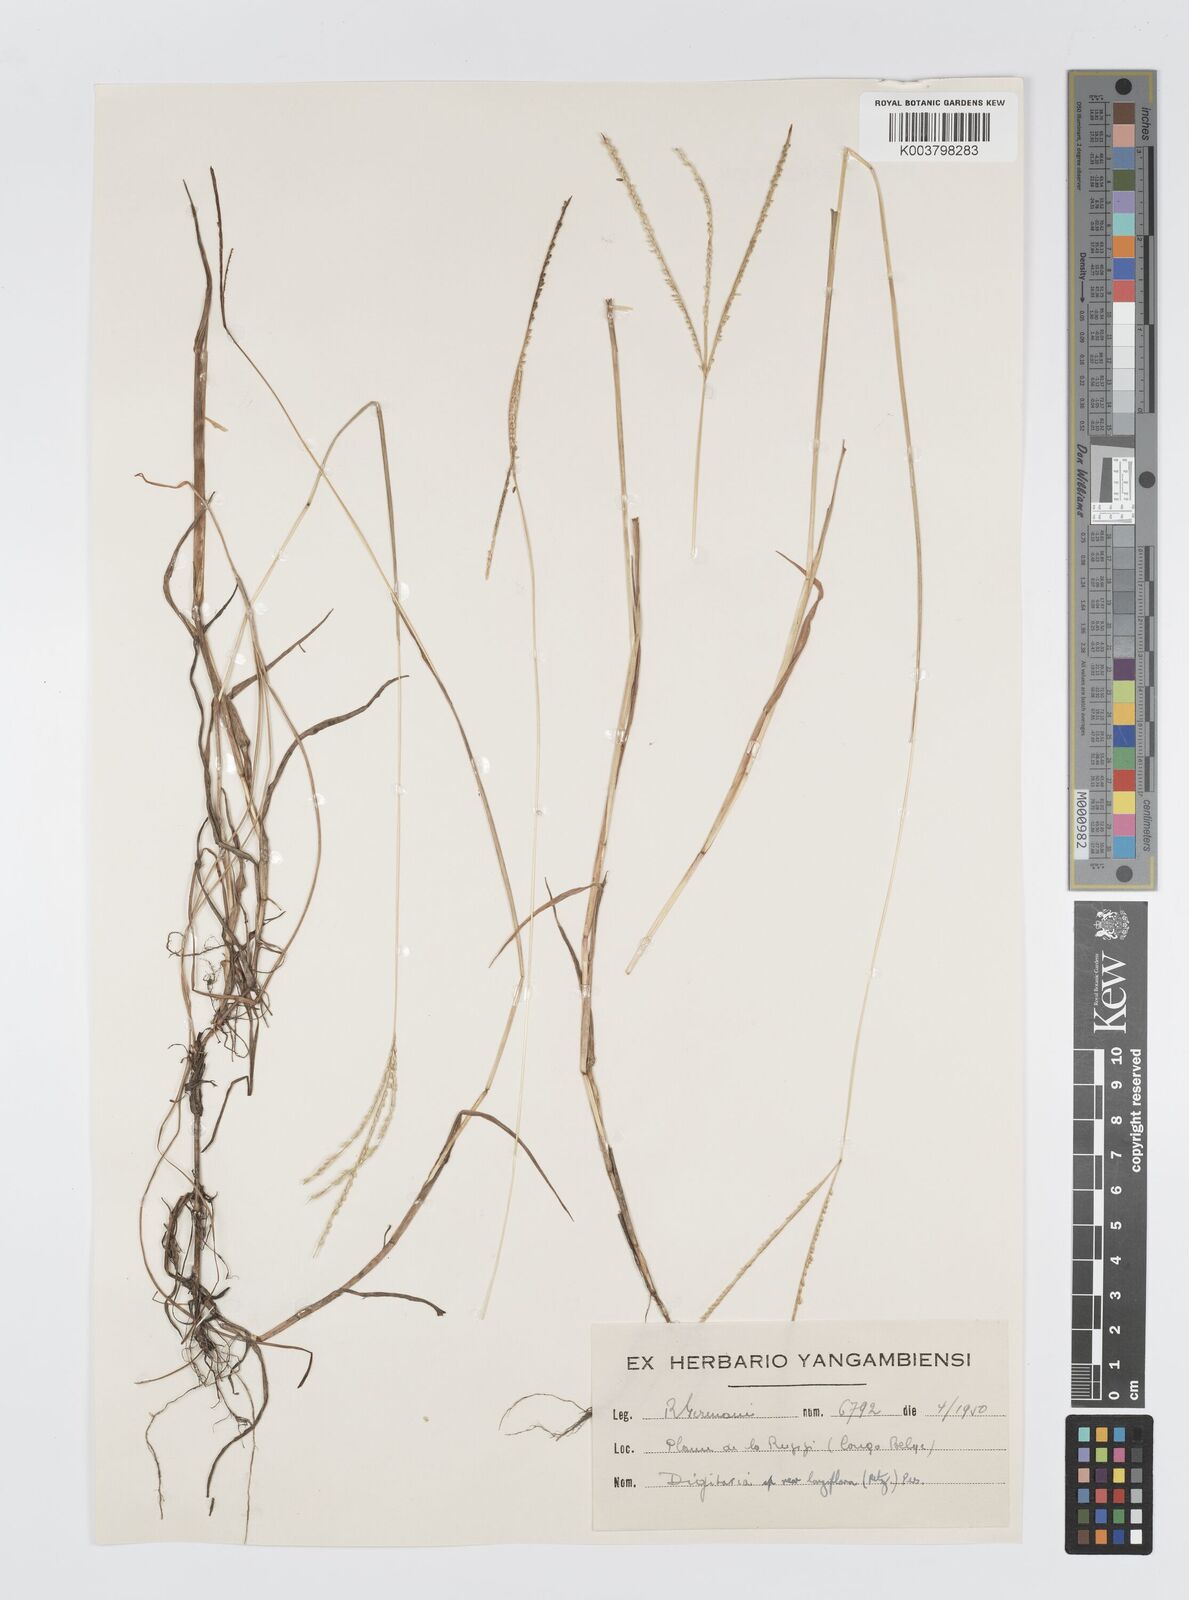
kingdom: Plantae
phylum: Tracheophyta
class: Liliopsida
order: Poales
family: Poaceae
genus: Digitaria
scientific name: Digitaria longiflora
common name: Wire crabgrass
